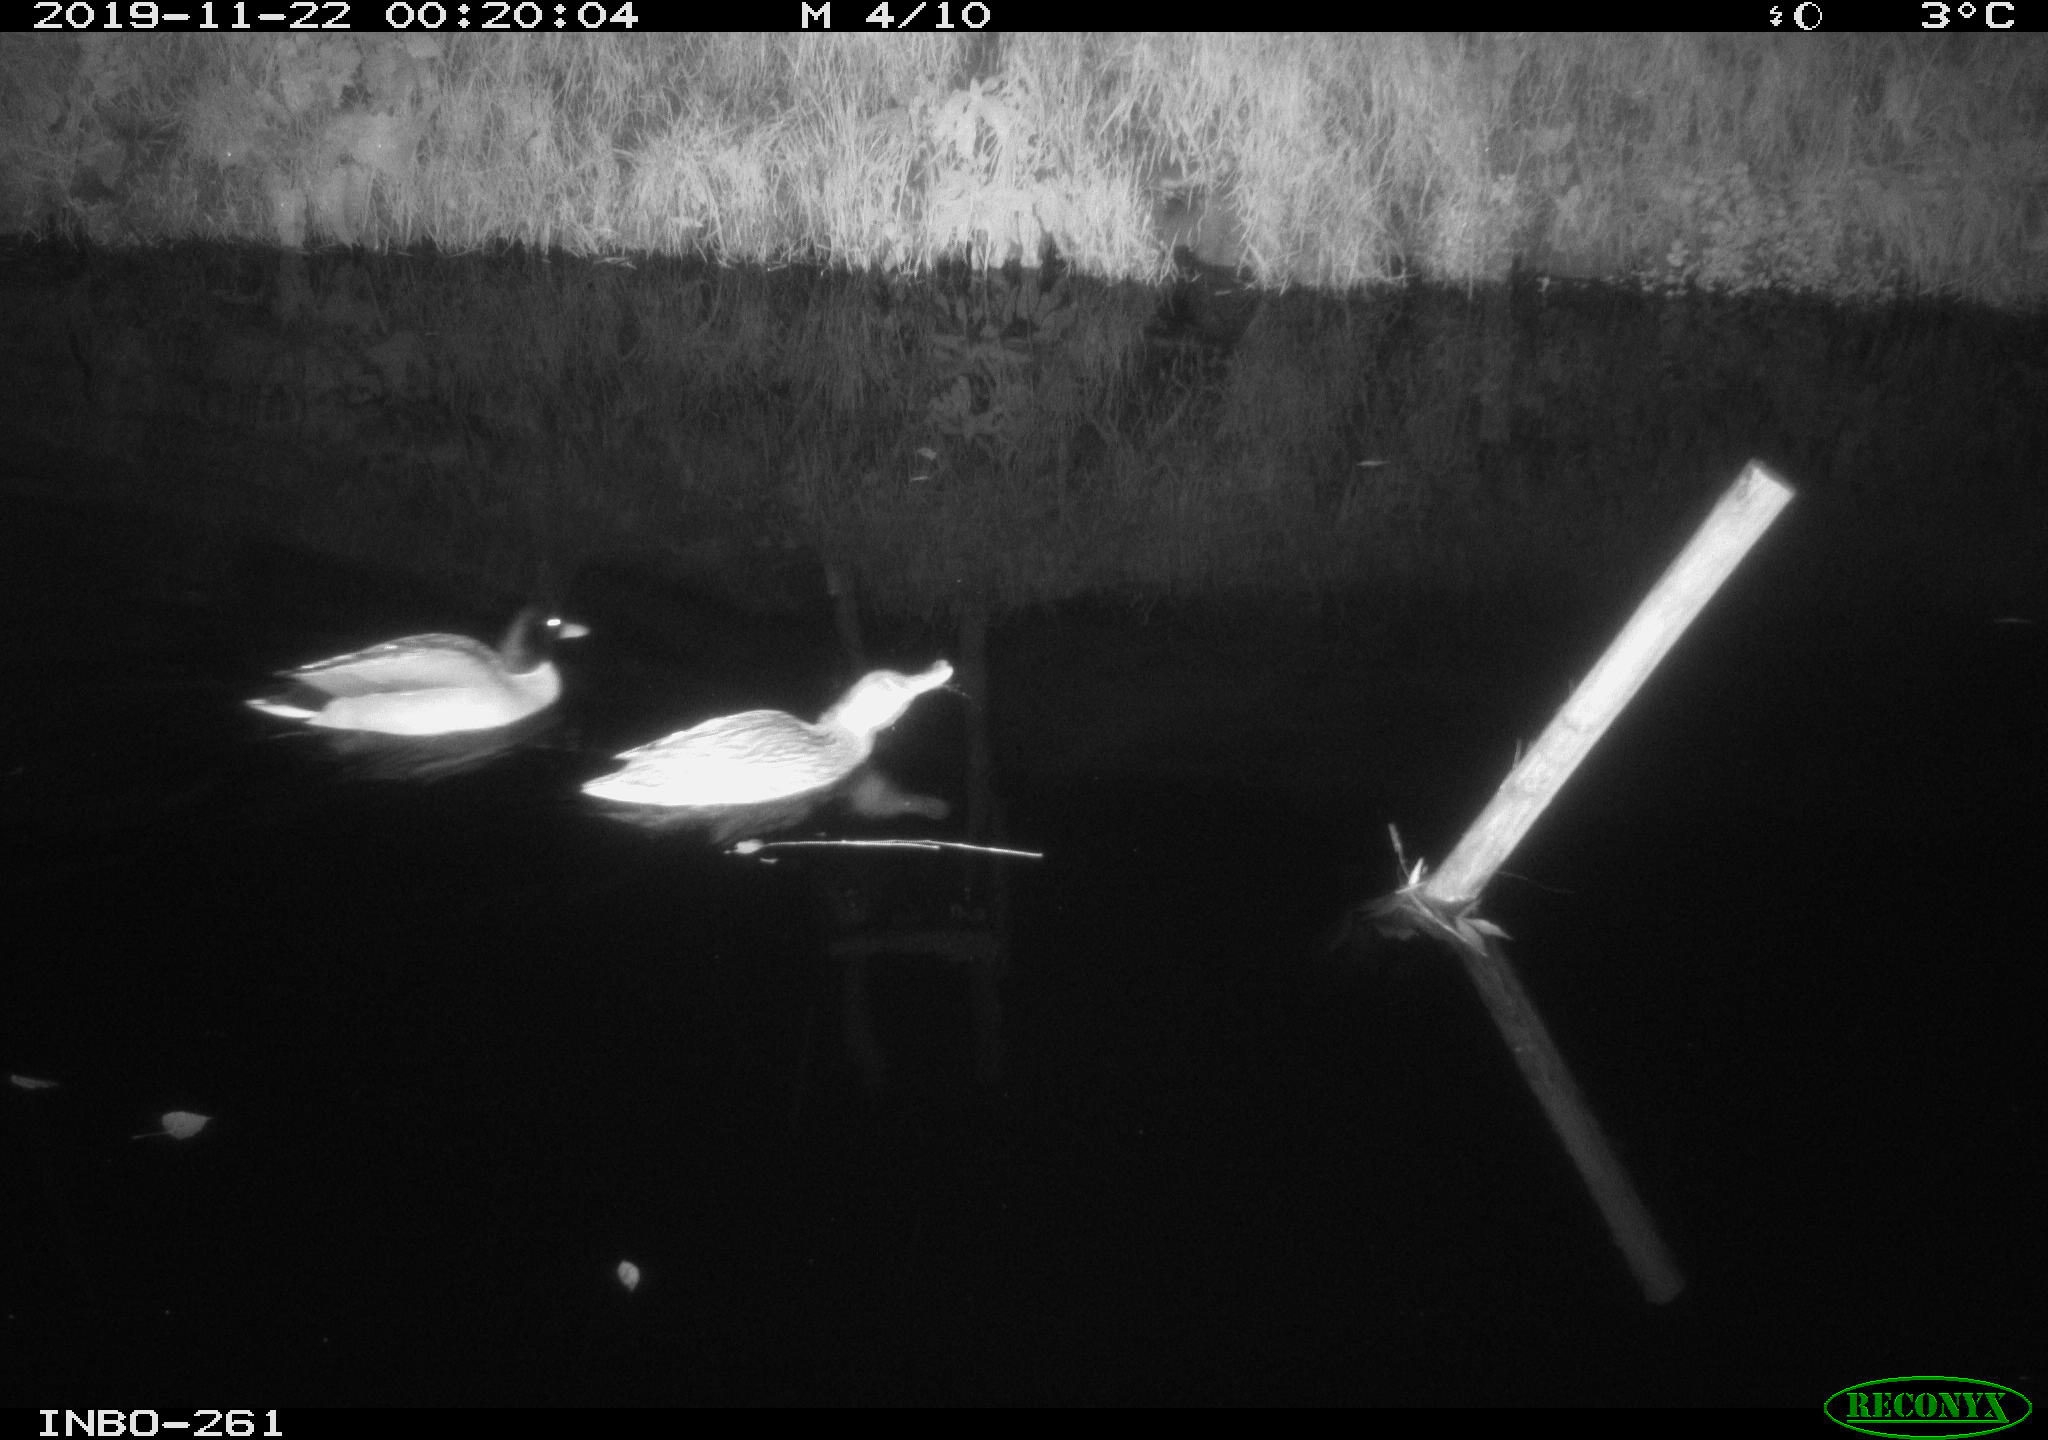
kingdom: Animalia
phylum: Chordata
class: Aves
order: Anseriformes
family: Anatidae
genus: Anas
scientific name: Anas platyrhynchos
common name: Mallard
